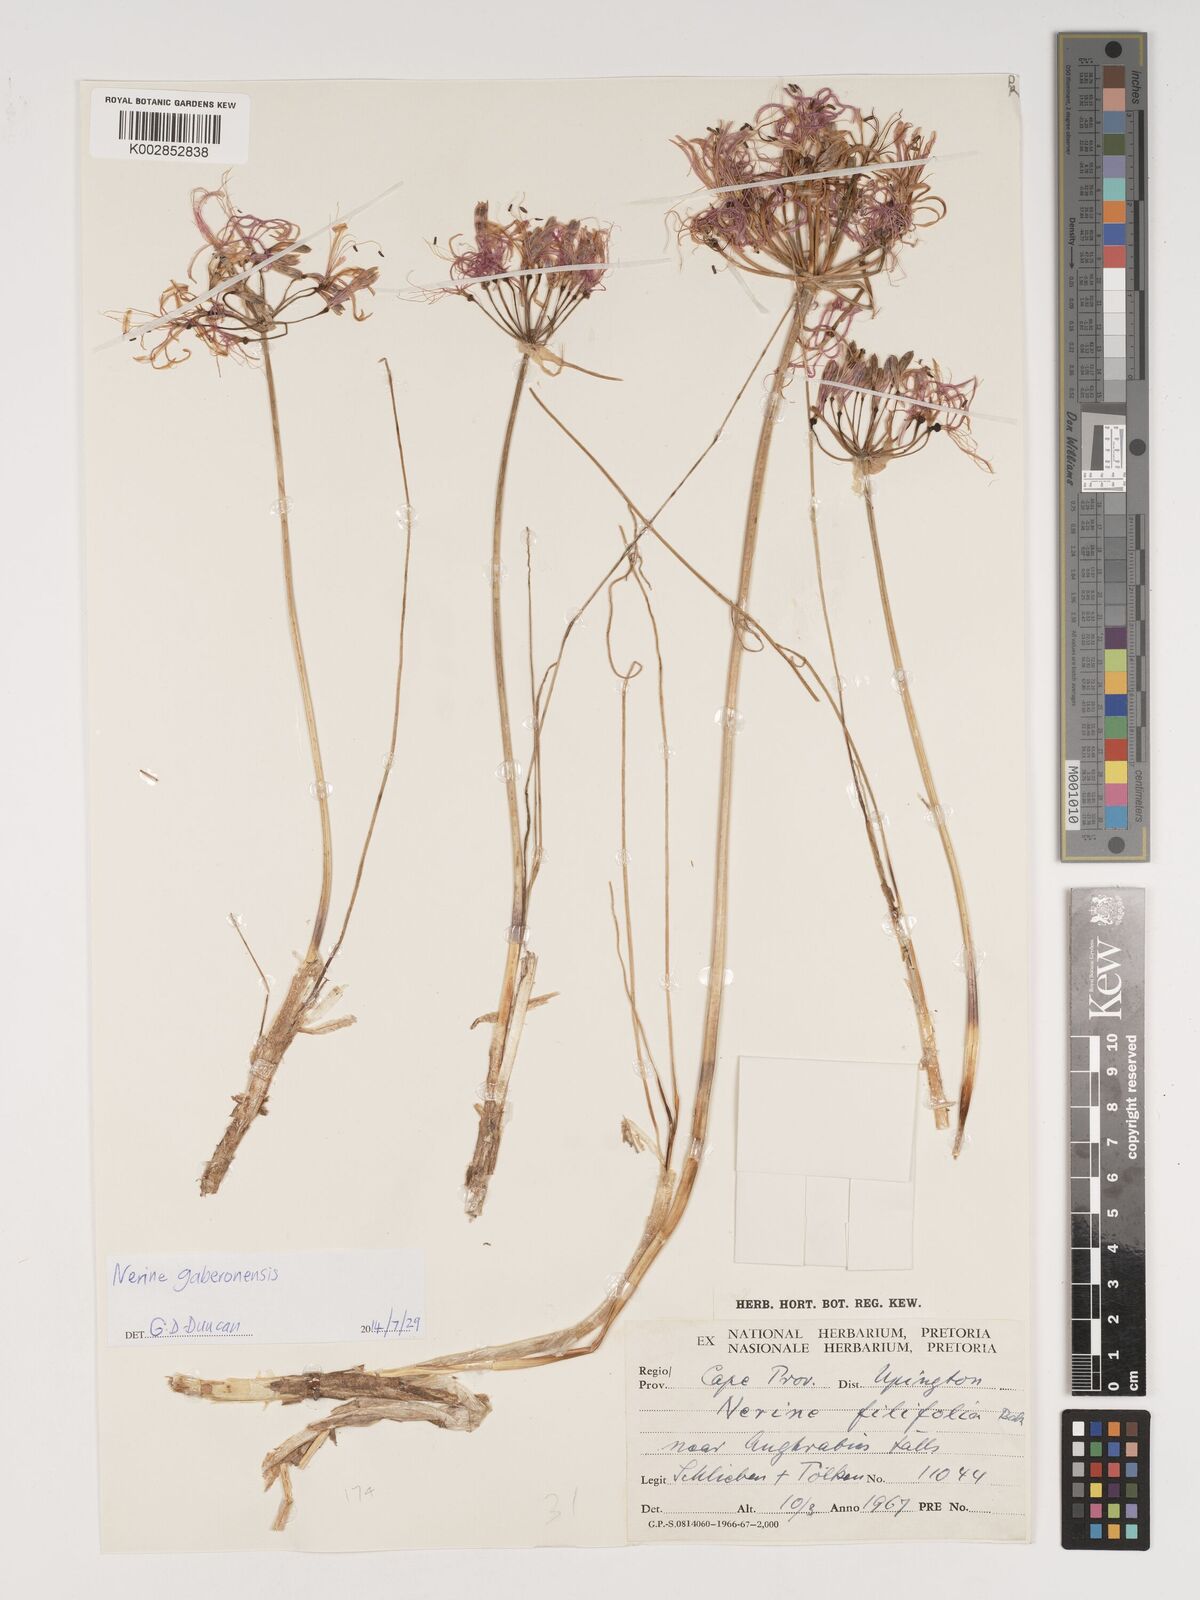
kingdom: Plantae
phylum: Tracheophyta
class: Liliopsida
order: Asparagales
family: Amaryllidaceae
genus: Nerine
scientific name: Nerine gaberonensis
